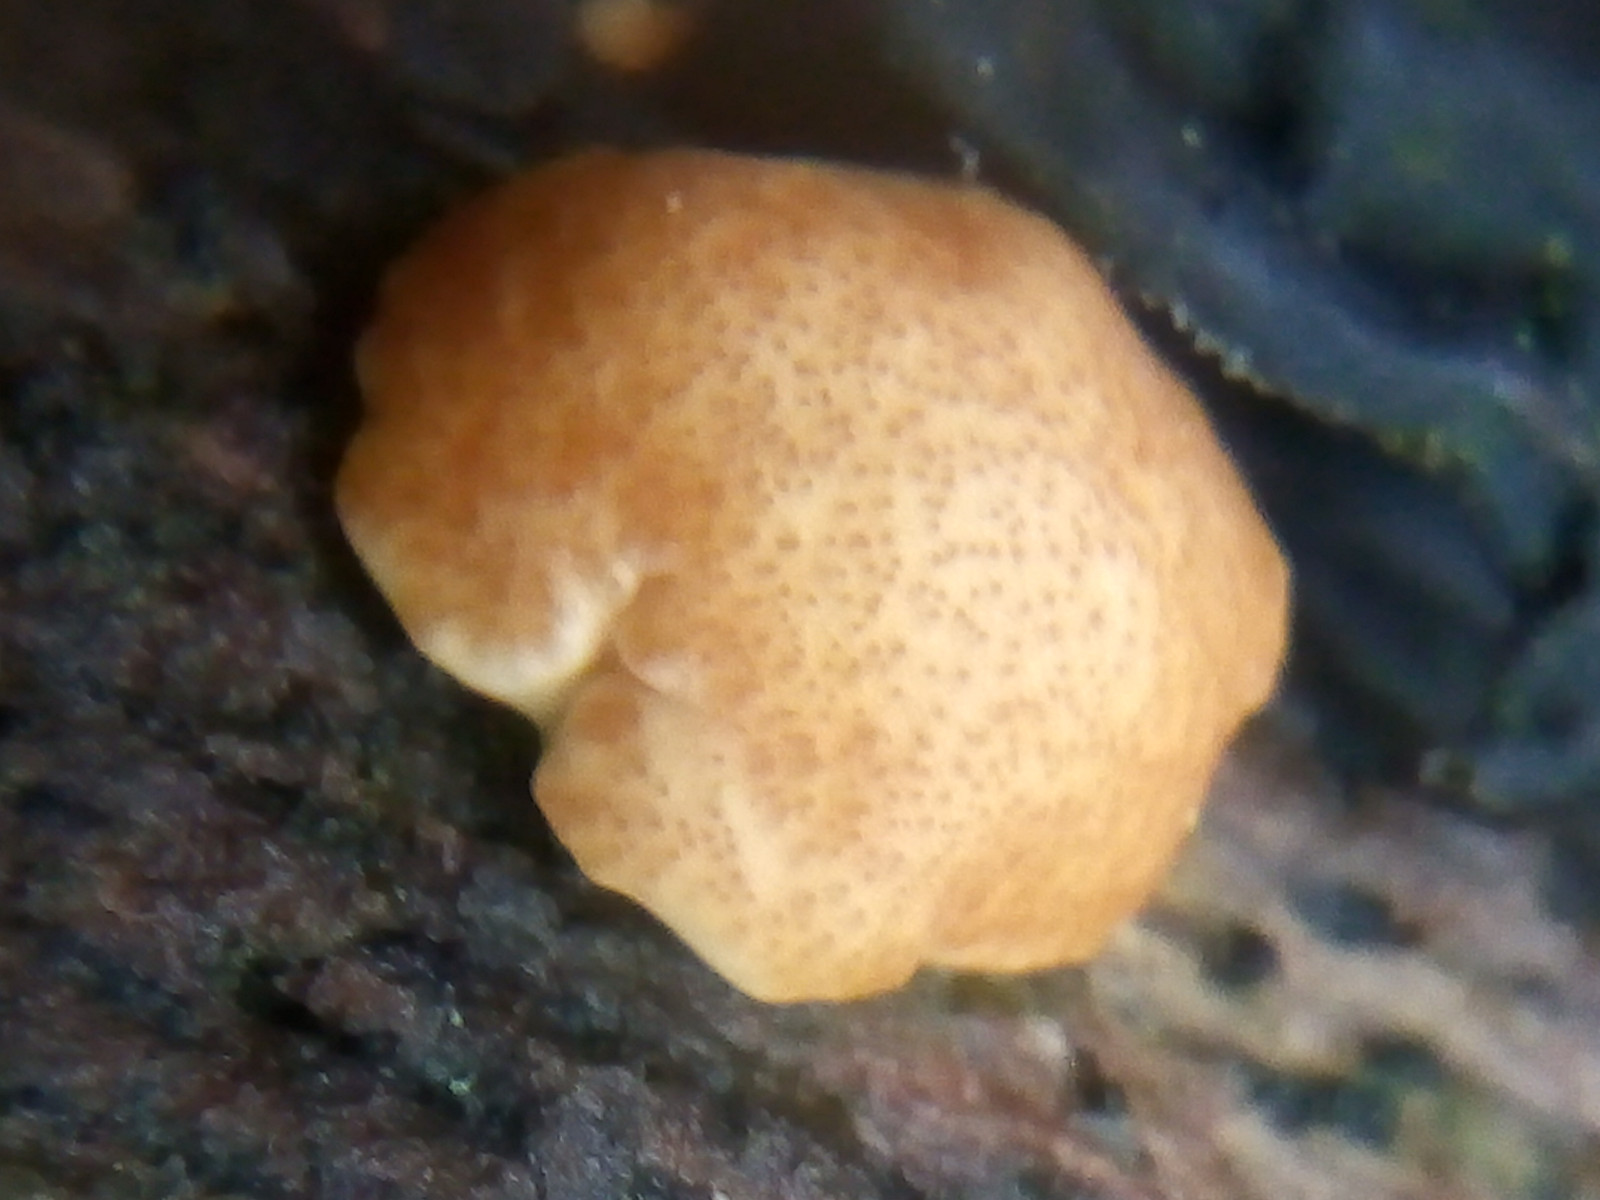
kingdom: Fungi
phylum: Ascomycota
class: Sordariomycetes
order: Hypocreales
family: Hypocreaceae
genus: Trichoderma
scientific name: Trichoderma europaeum
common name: rosabrun kødkerne
